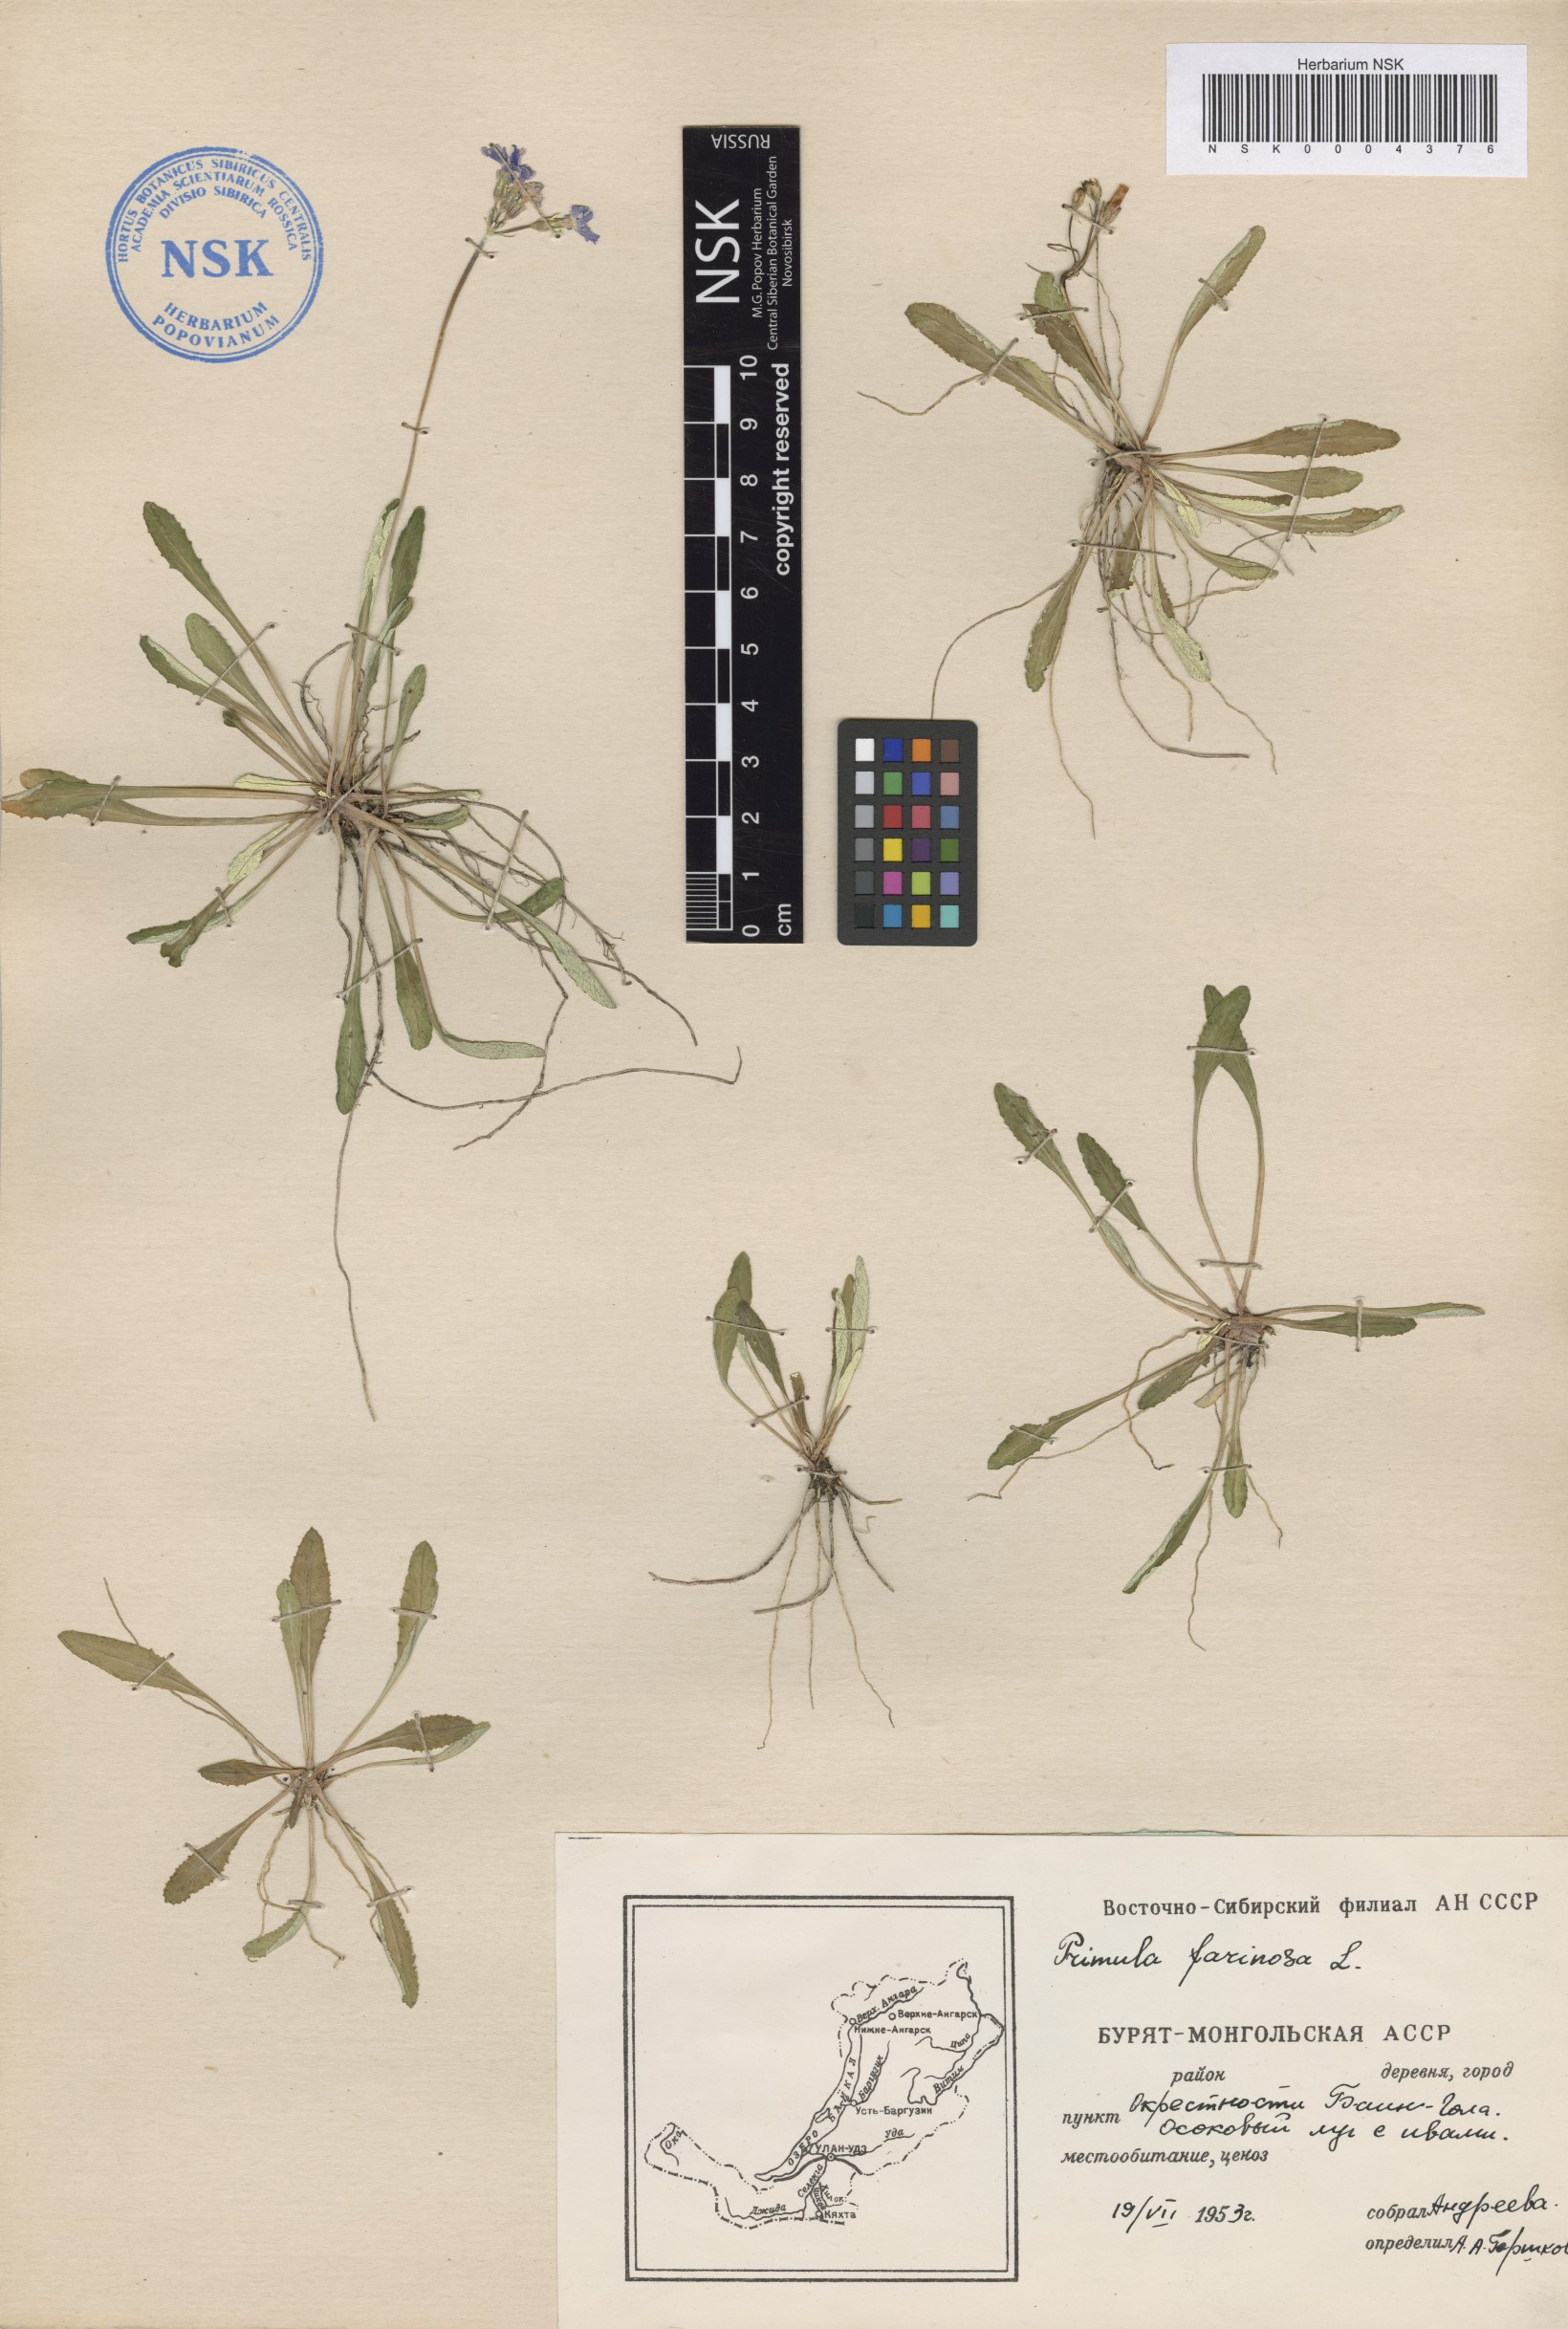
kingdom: Plantae
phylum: Tracheophyta
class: Magnoliopsida
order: Ericales
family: Primulaceae
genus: Primula
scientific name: Primula farinosa
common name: Bird's-eye primrose
